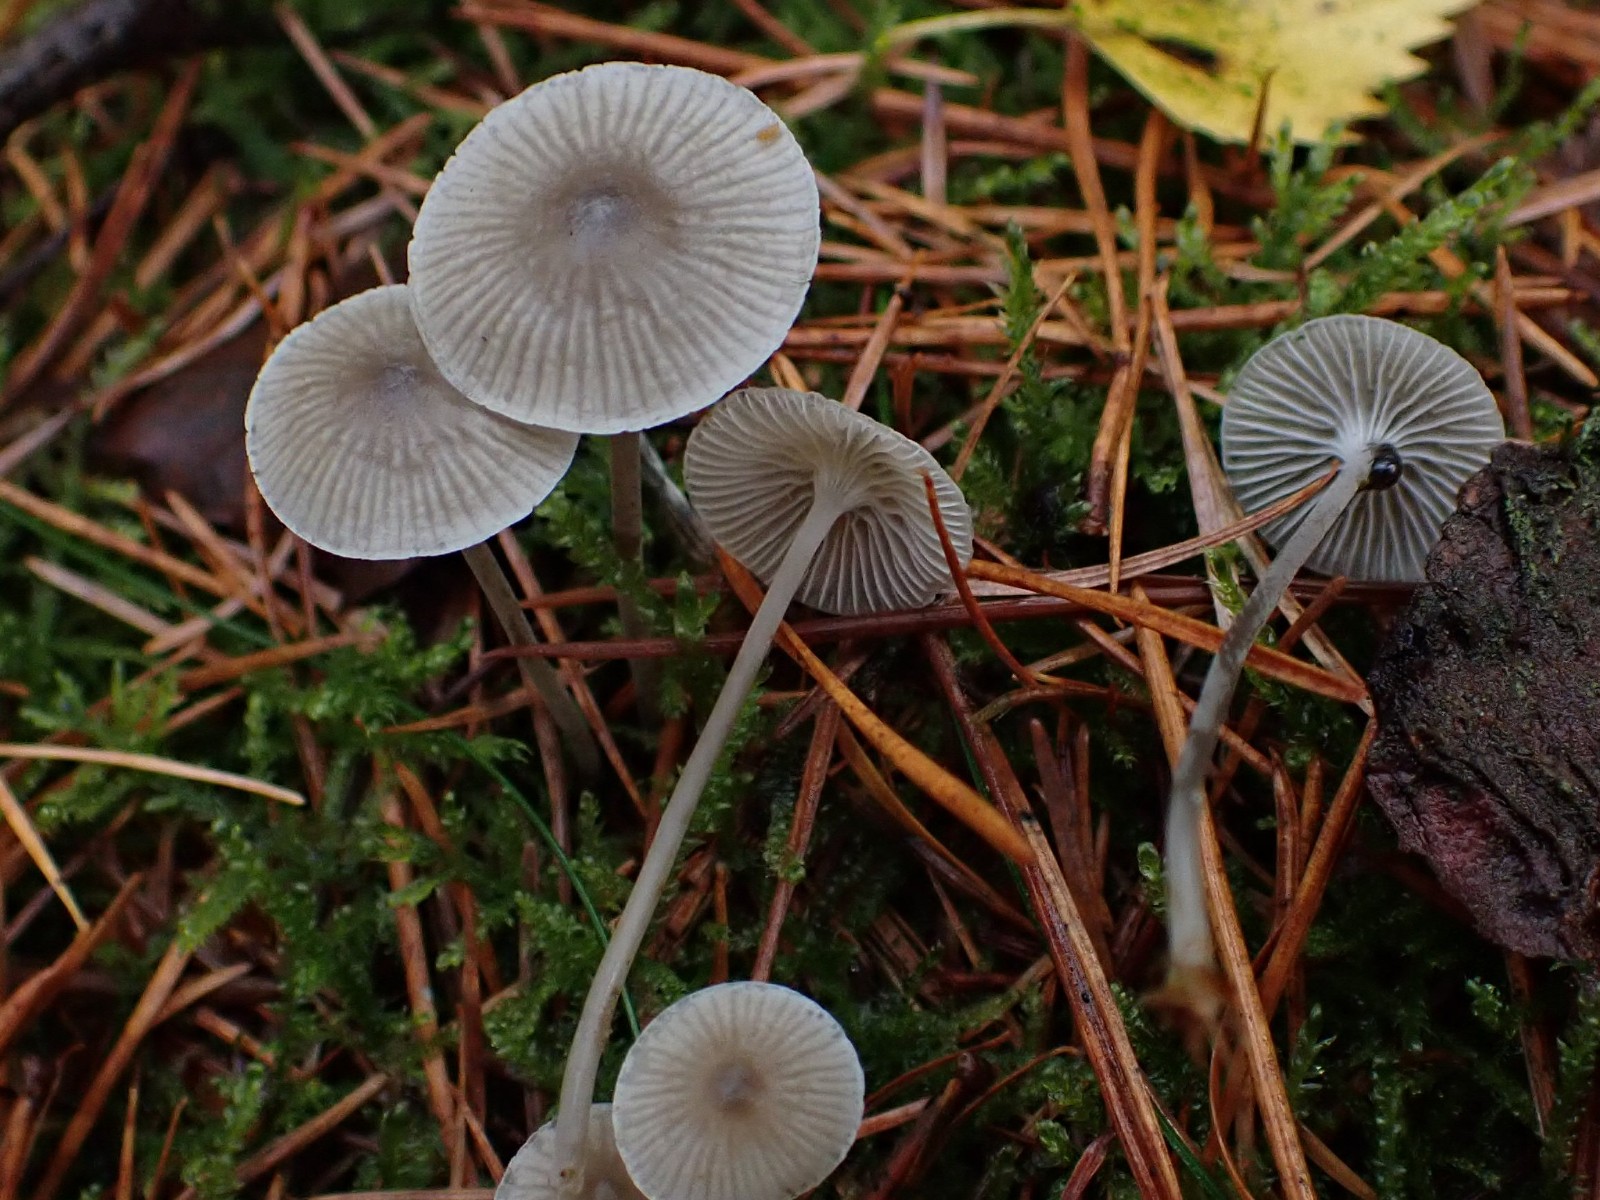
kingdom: Fungi
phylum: Basidiomycota
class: Agaricomycetes
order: Agaricales
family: Mycenaceae
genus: Mycena
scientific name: Mycena cinerella
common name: mel-huesvamp
